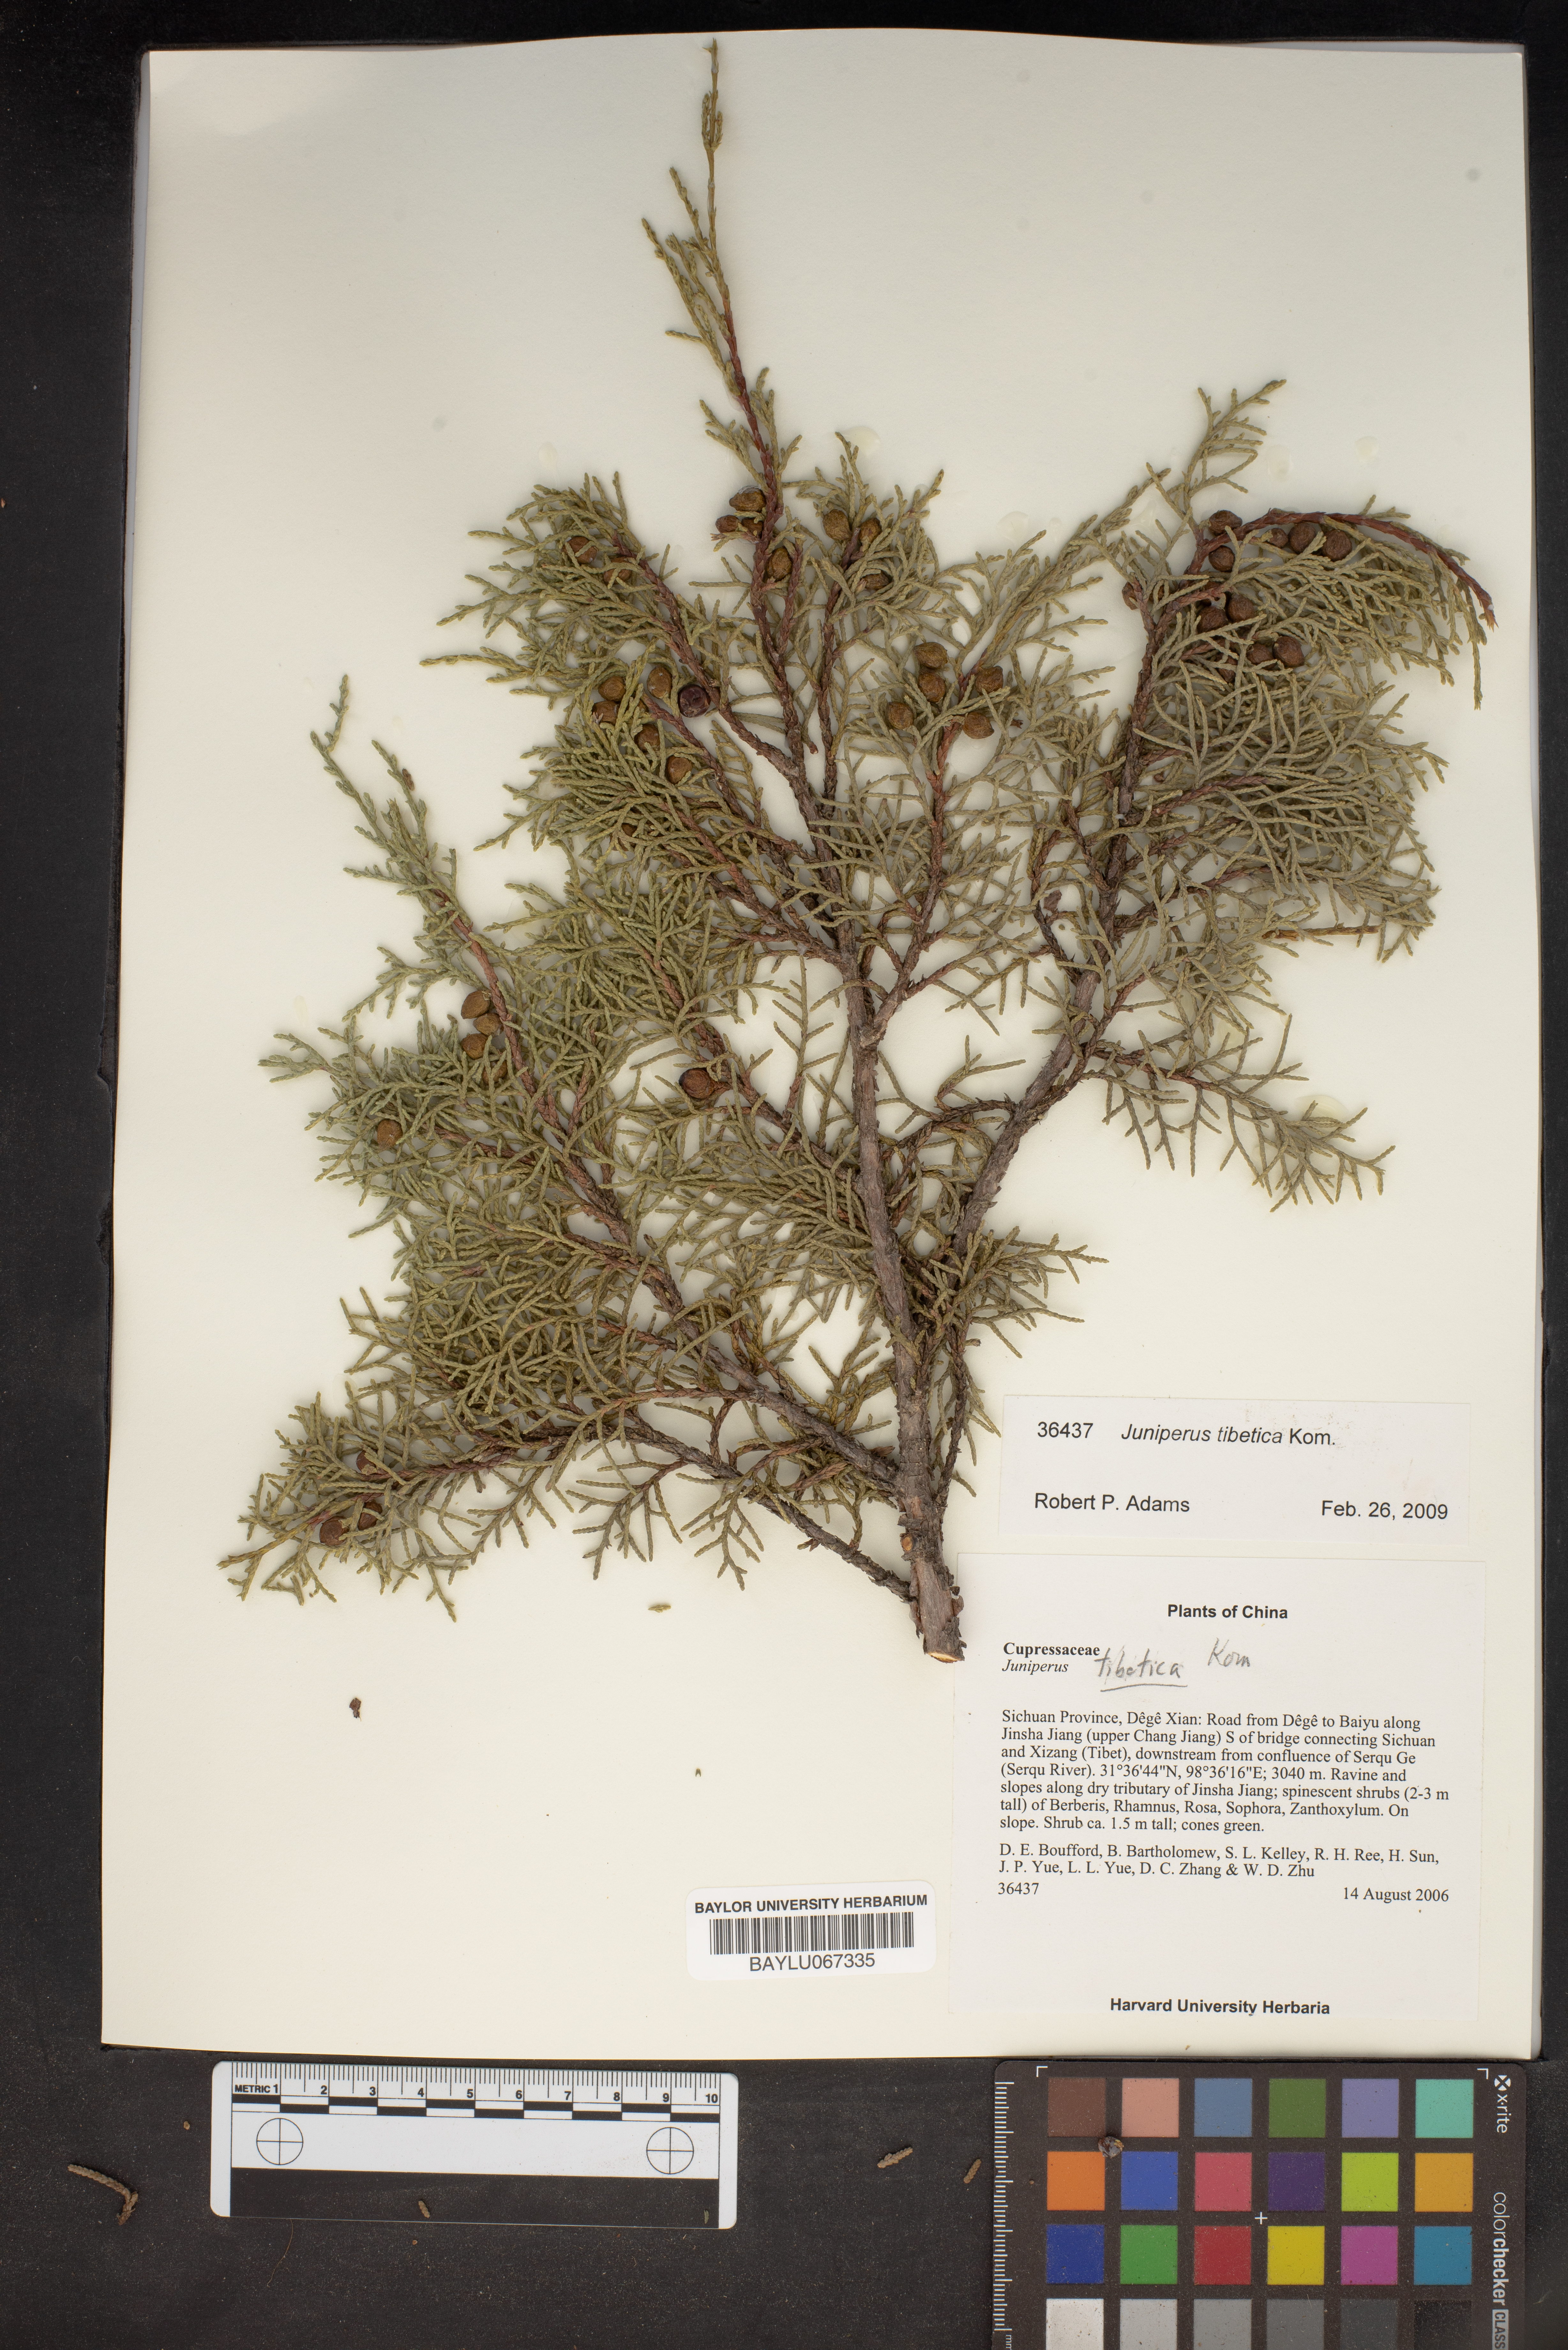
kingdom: Plantae
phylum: Tracheophyta
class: Pinopsida
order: Pinales
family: Cupressaceae
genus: Juniperus
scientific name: Juniperus tibetica
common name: Tibetan juniper
